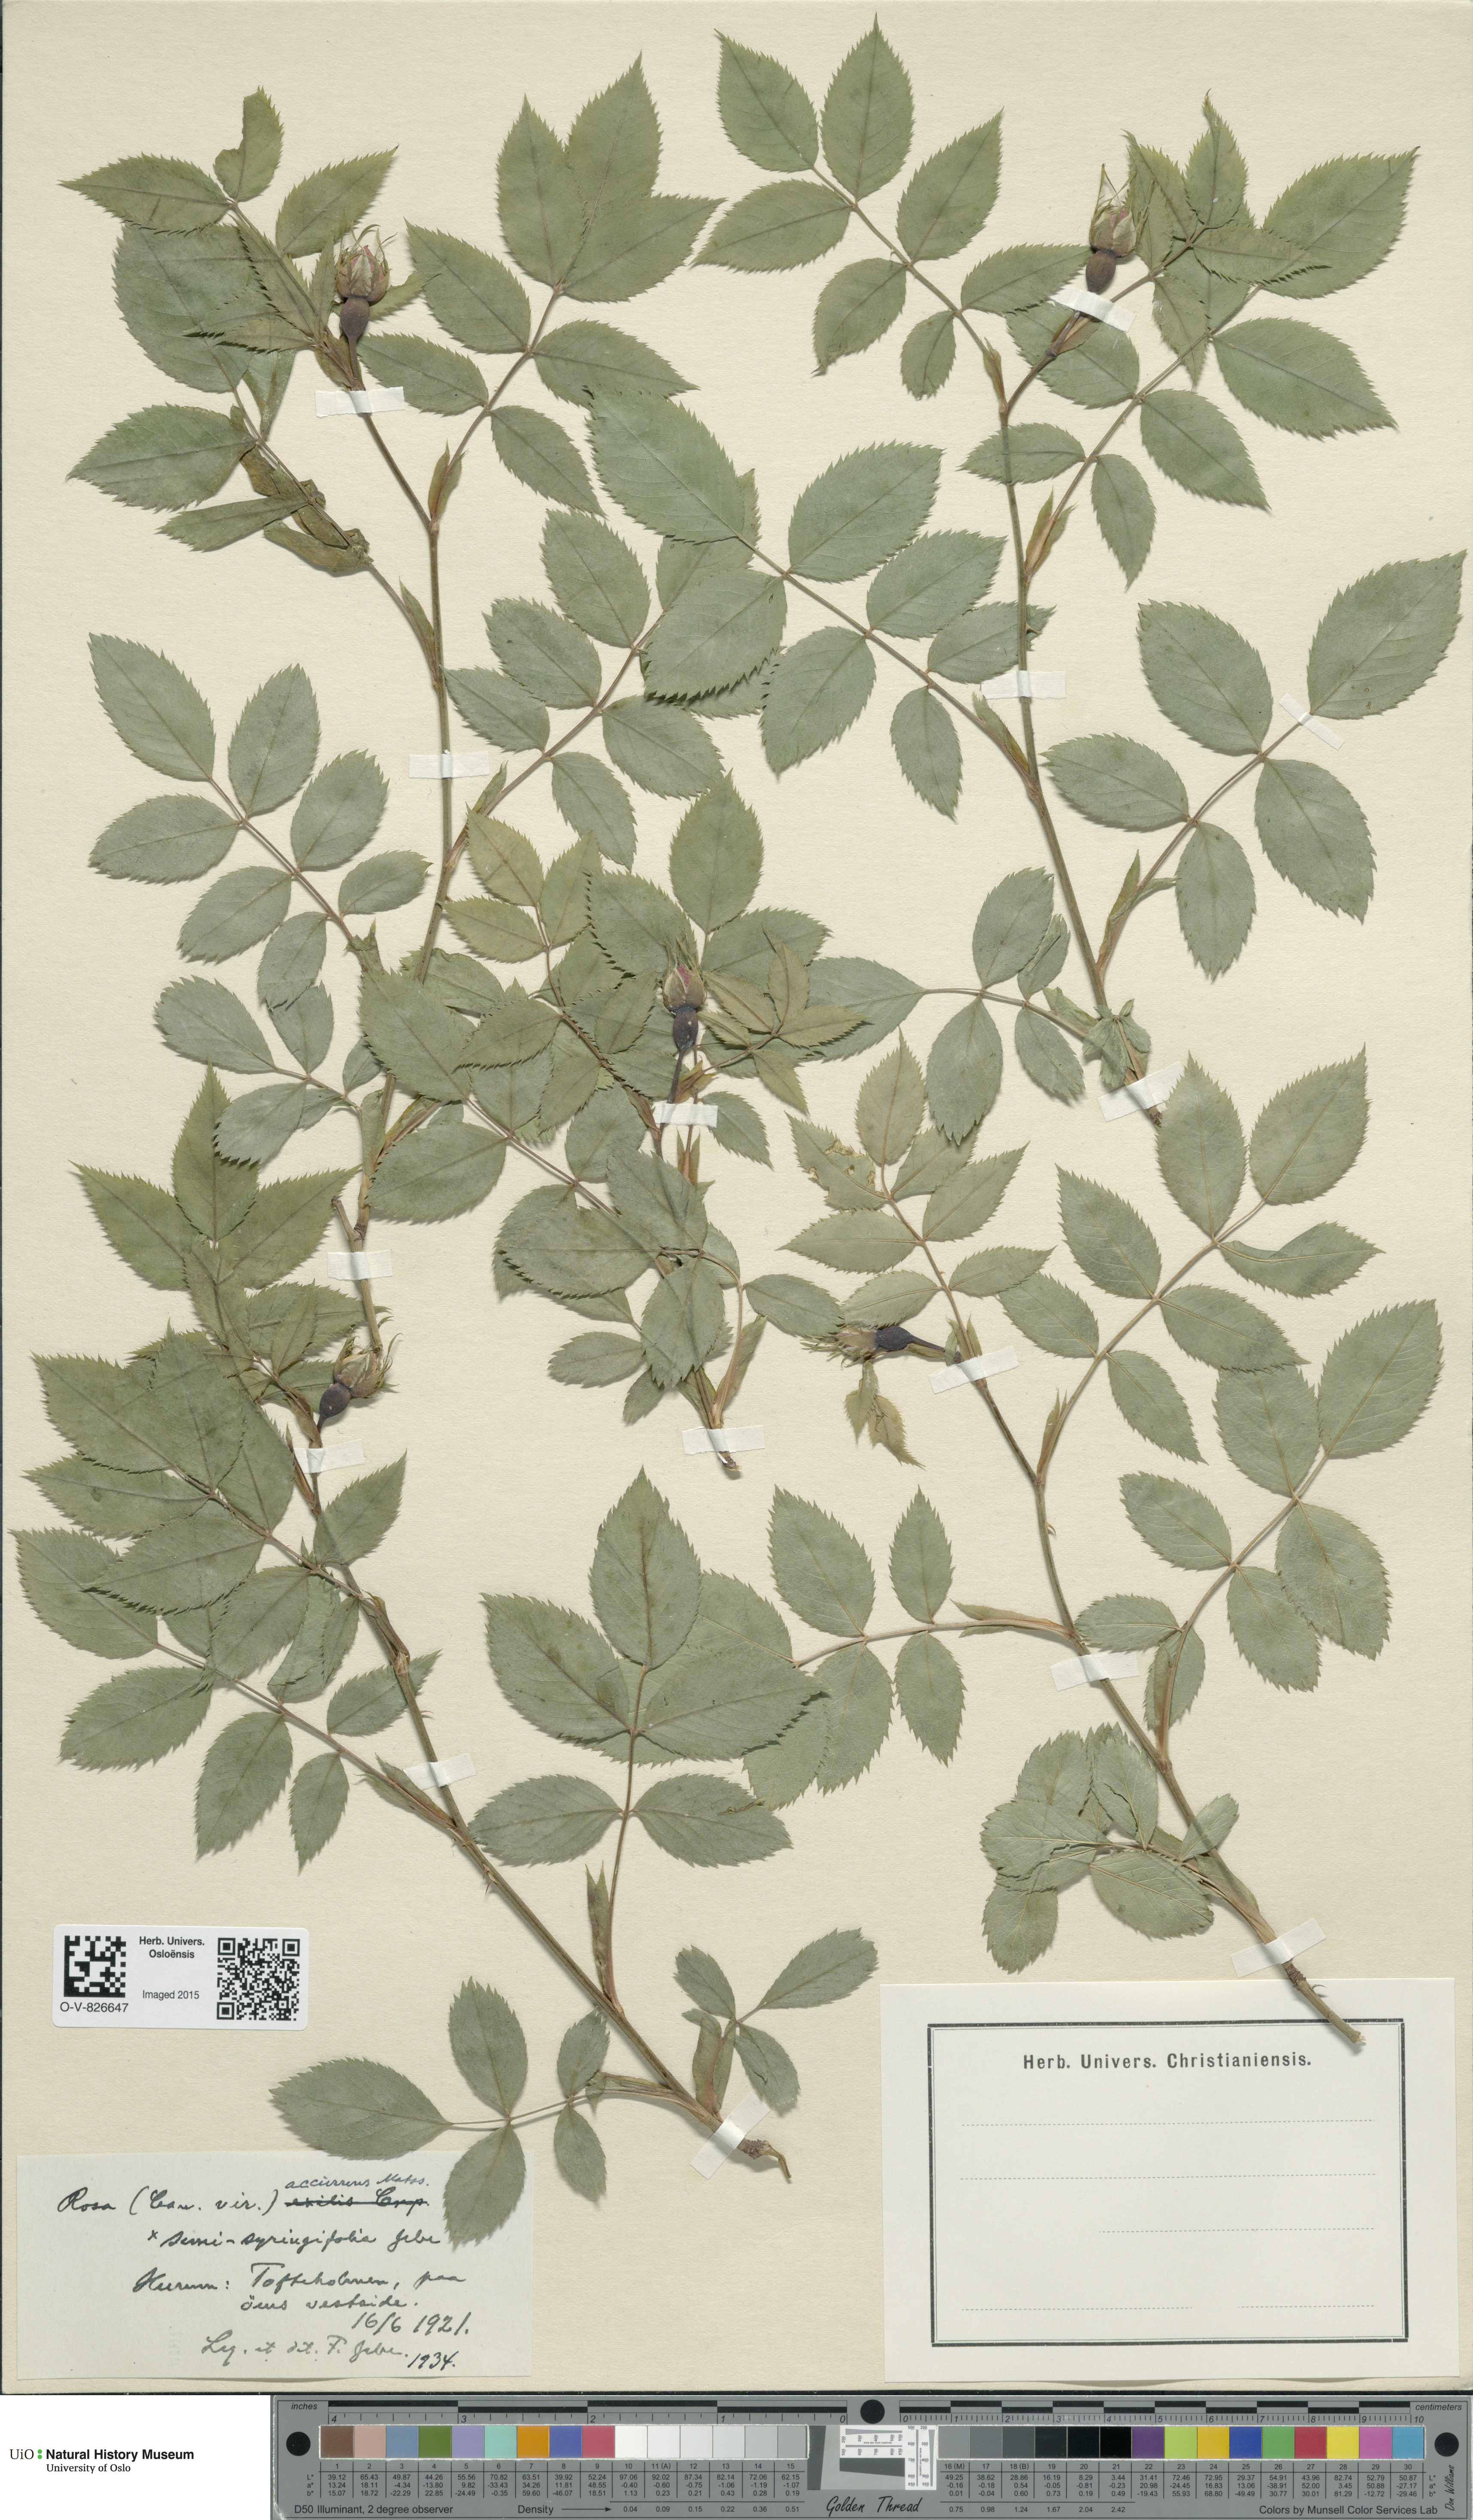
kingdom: Plantae
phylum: Tracheophyta
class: Magnoliopsida
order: Rosales
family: Rosaceae
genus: Rosa
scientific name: Rosa canina
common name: Dog rose
